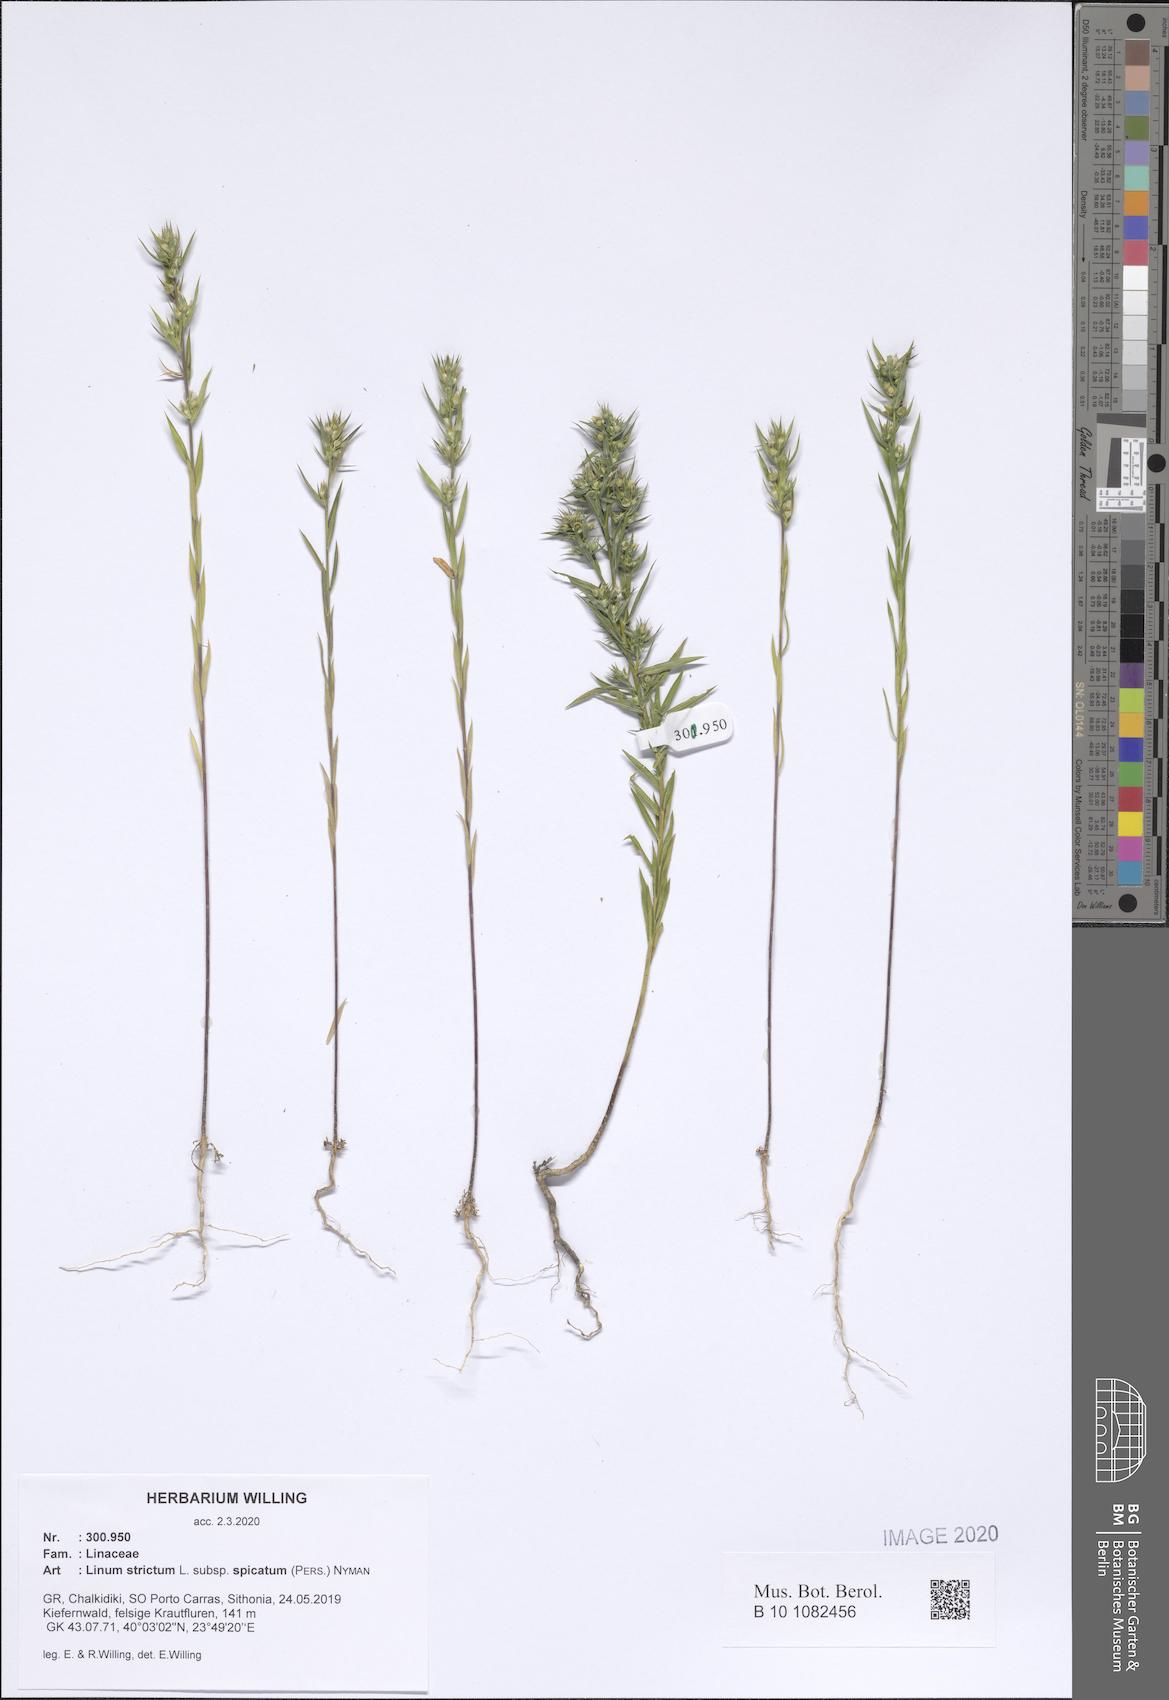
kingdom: Plantae
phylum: Tracheophyta
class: Magnoliopsida
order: Malpighiales
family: Linaceae
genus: Linum
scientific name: Linum strictum
